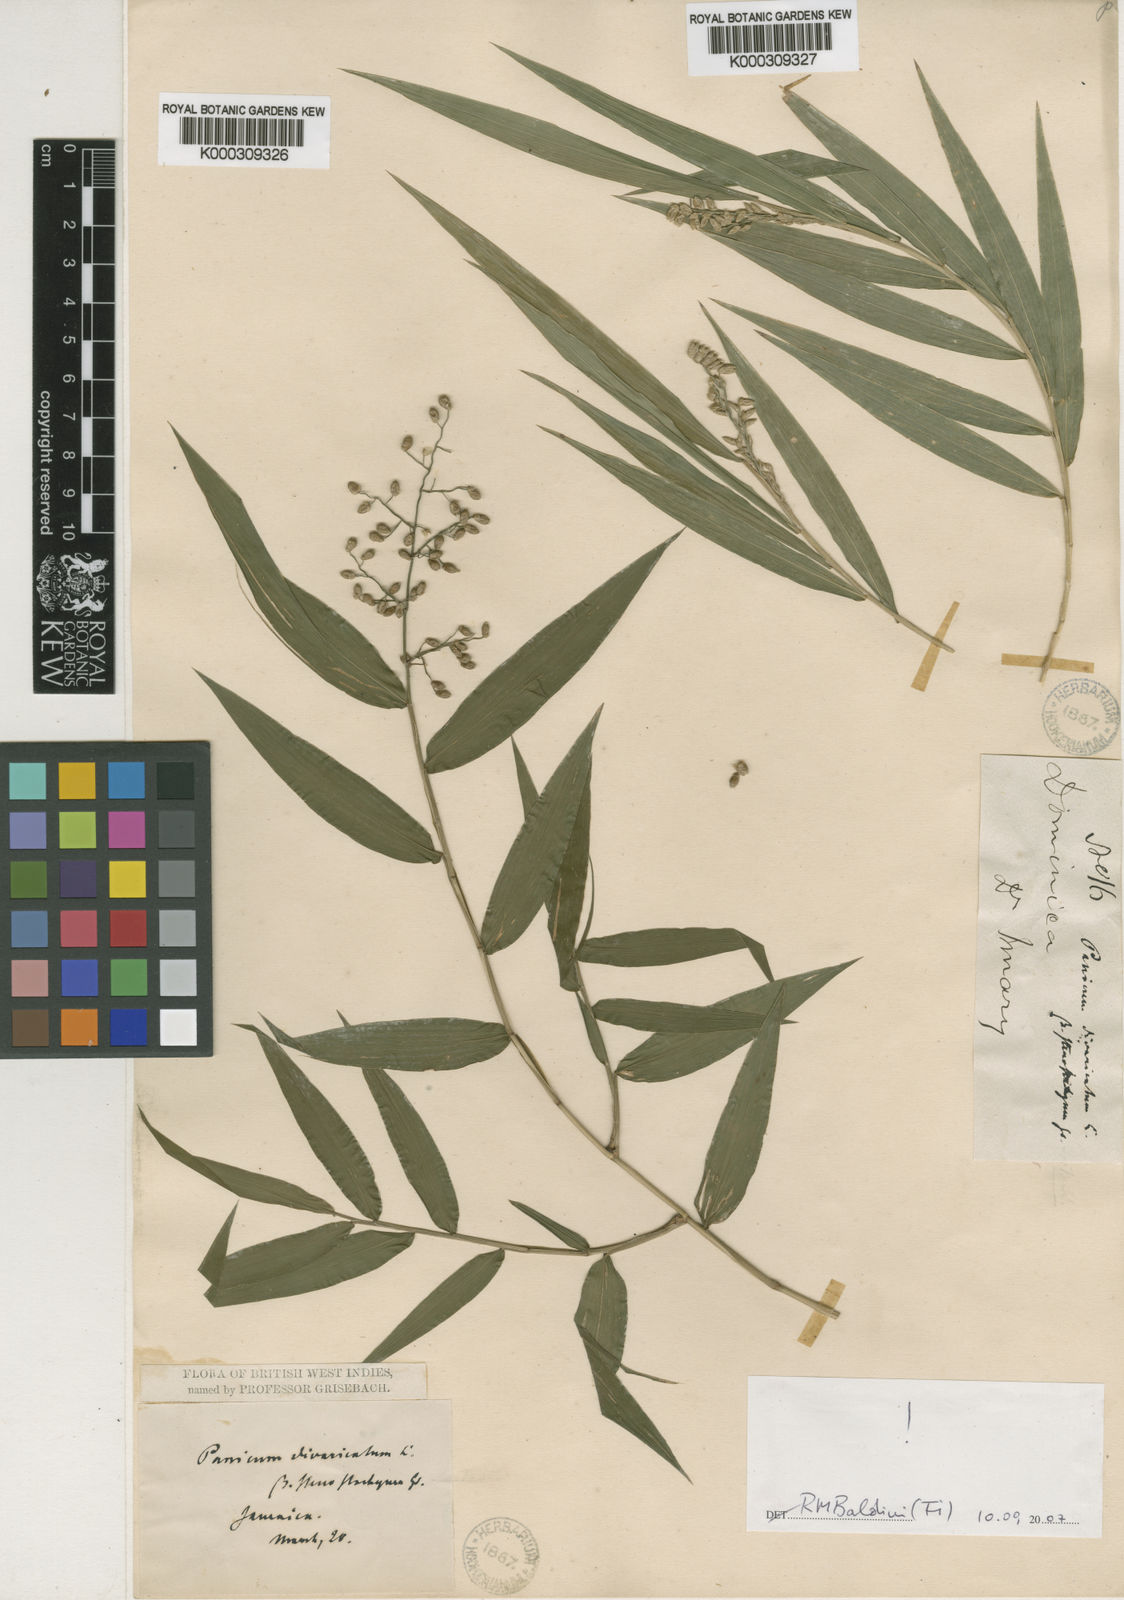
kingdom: Plantae
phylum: Tracheophyta
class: Liliopsida
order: Poales
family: Poaceae
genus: Lasiacis
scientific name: Lasiacis divaricata
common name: Smallcane
